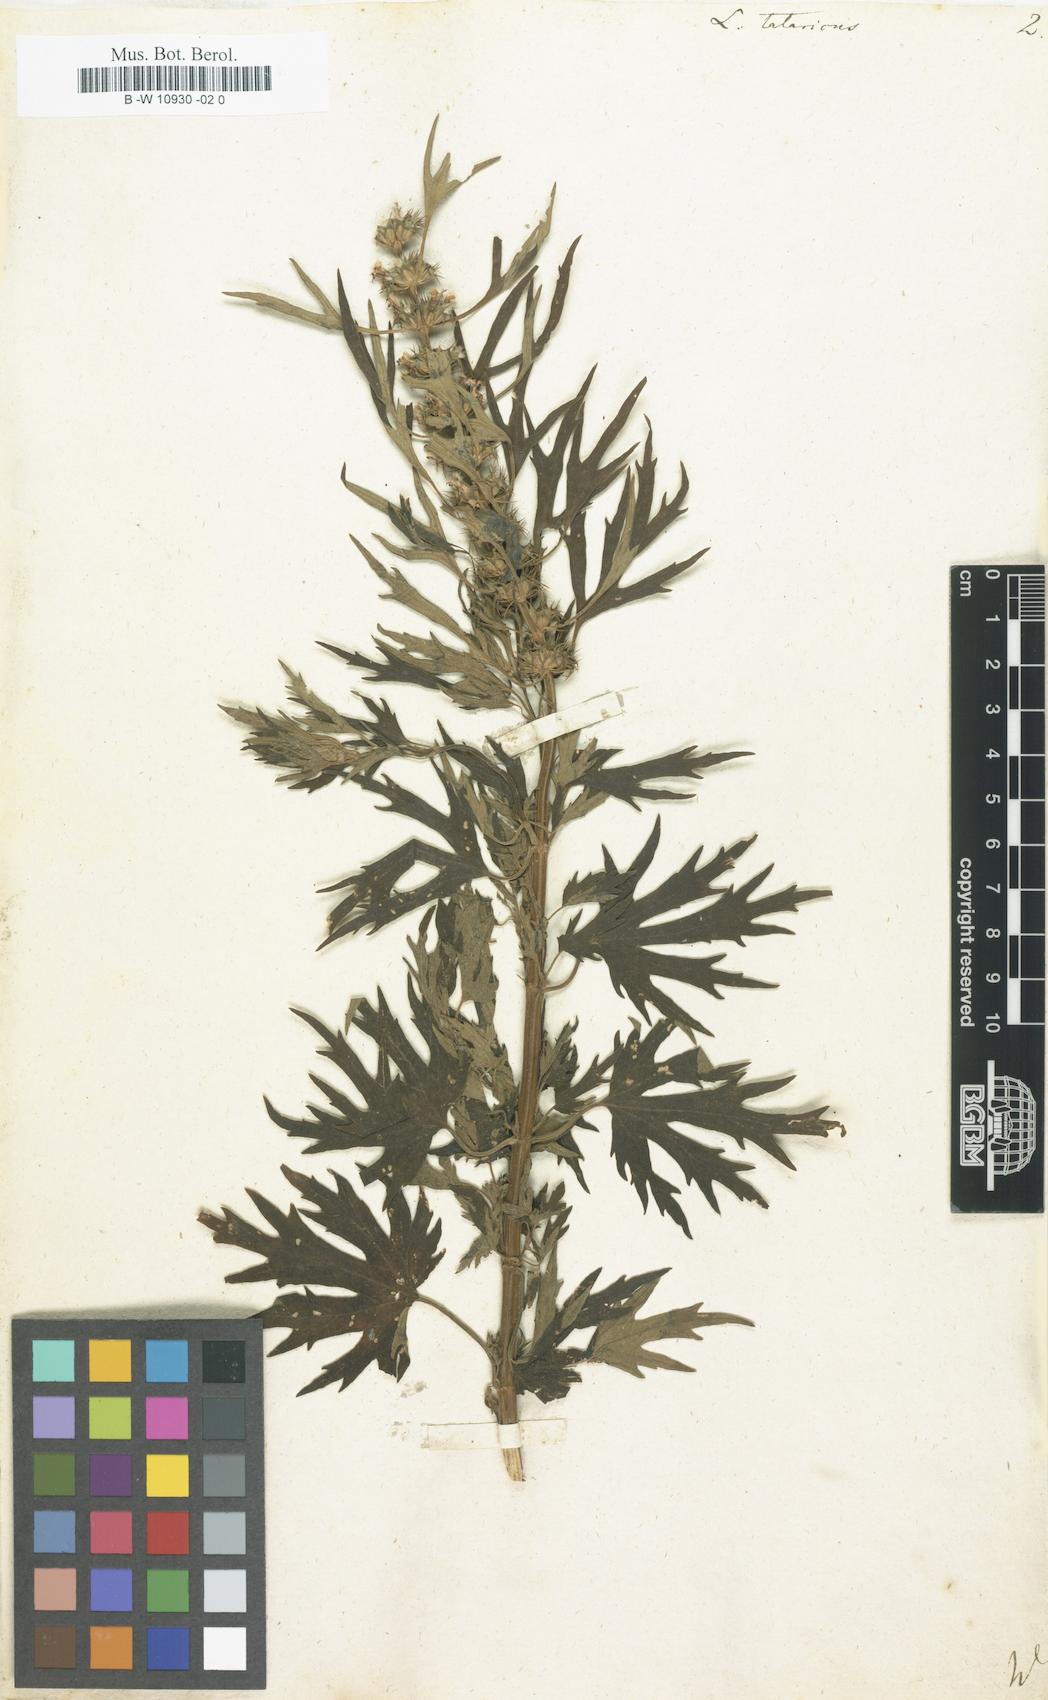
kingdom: Plantae
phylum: Tracheophyta
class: Magnoliopsida
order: Lamiales
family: Lamiaceae
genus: Leonurus
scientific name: Leonurus tataricus
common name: Chinese motherwort
